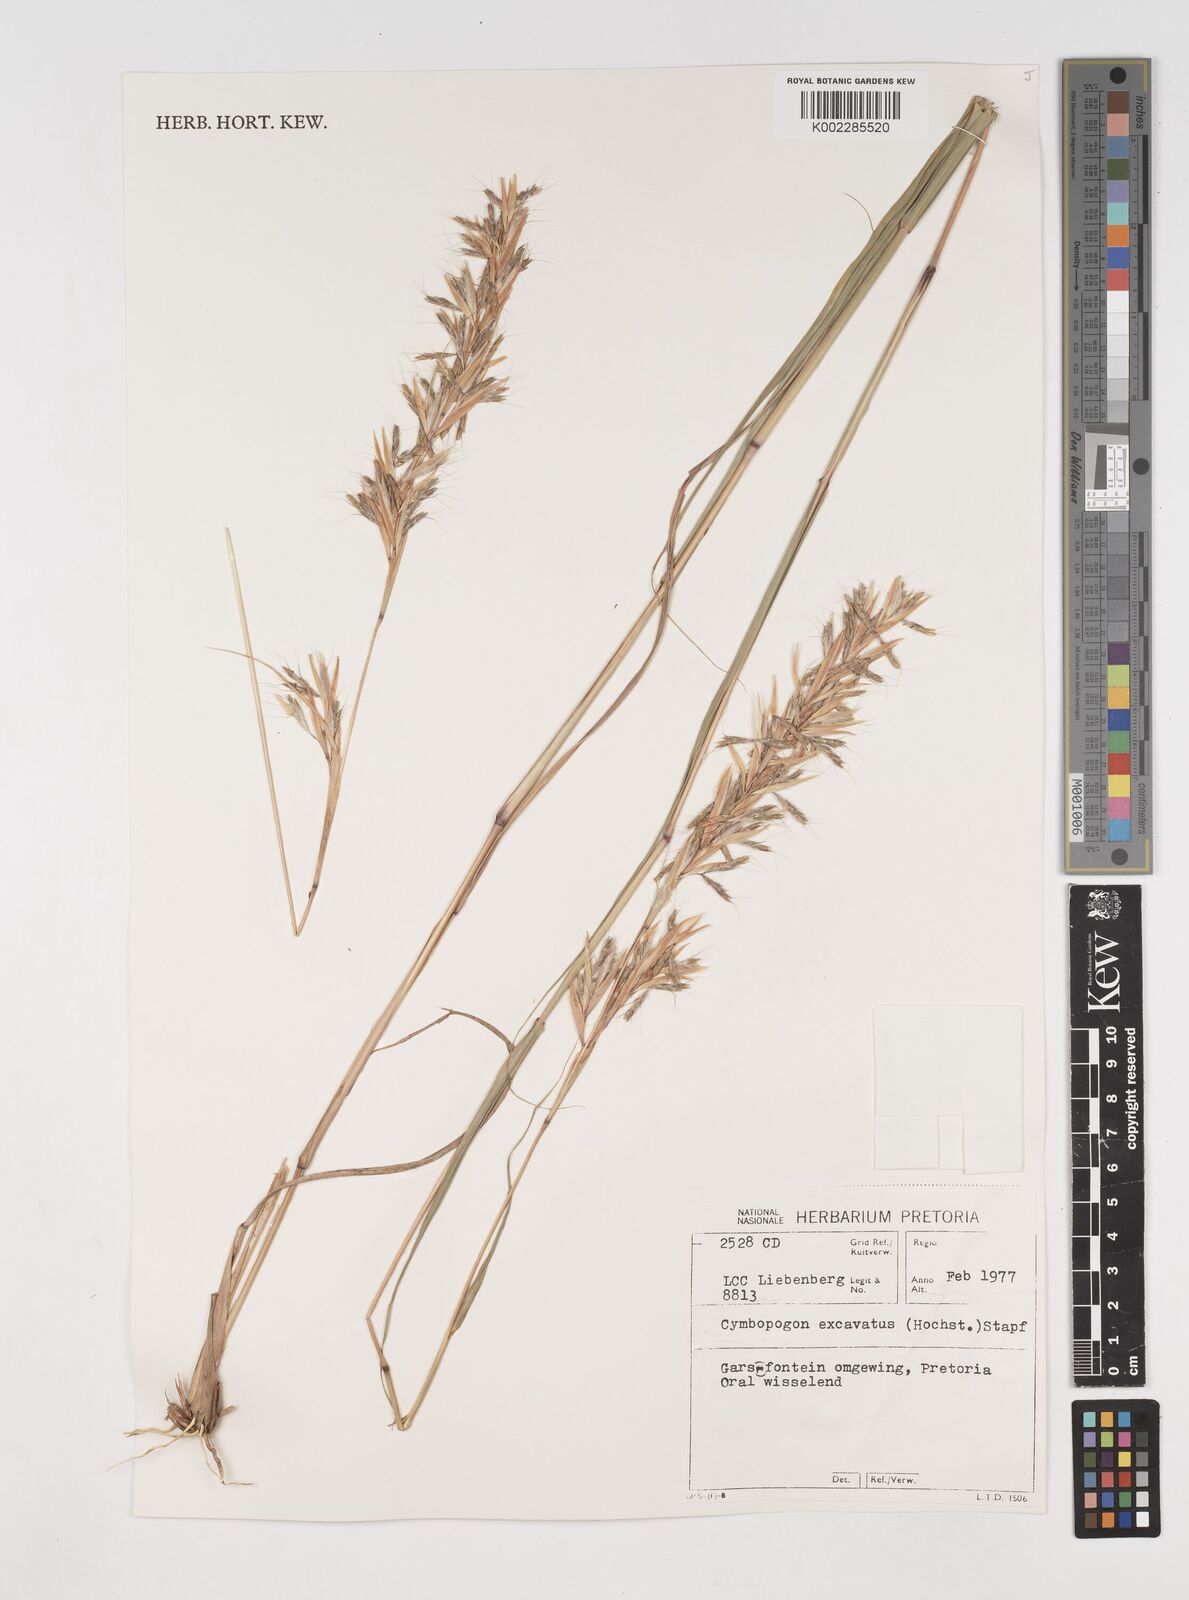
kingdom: Plantae
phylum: Tracheophyta
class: Liliopsida
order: Poales
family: Poaceae
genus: Cymbopogon
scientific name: Cymbopogon caesius
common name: Kachi grass
